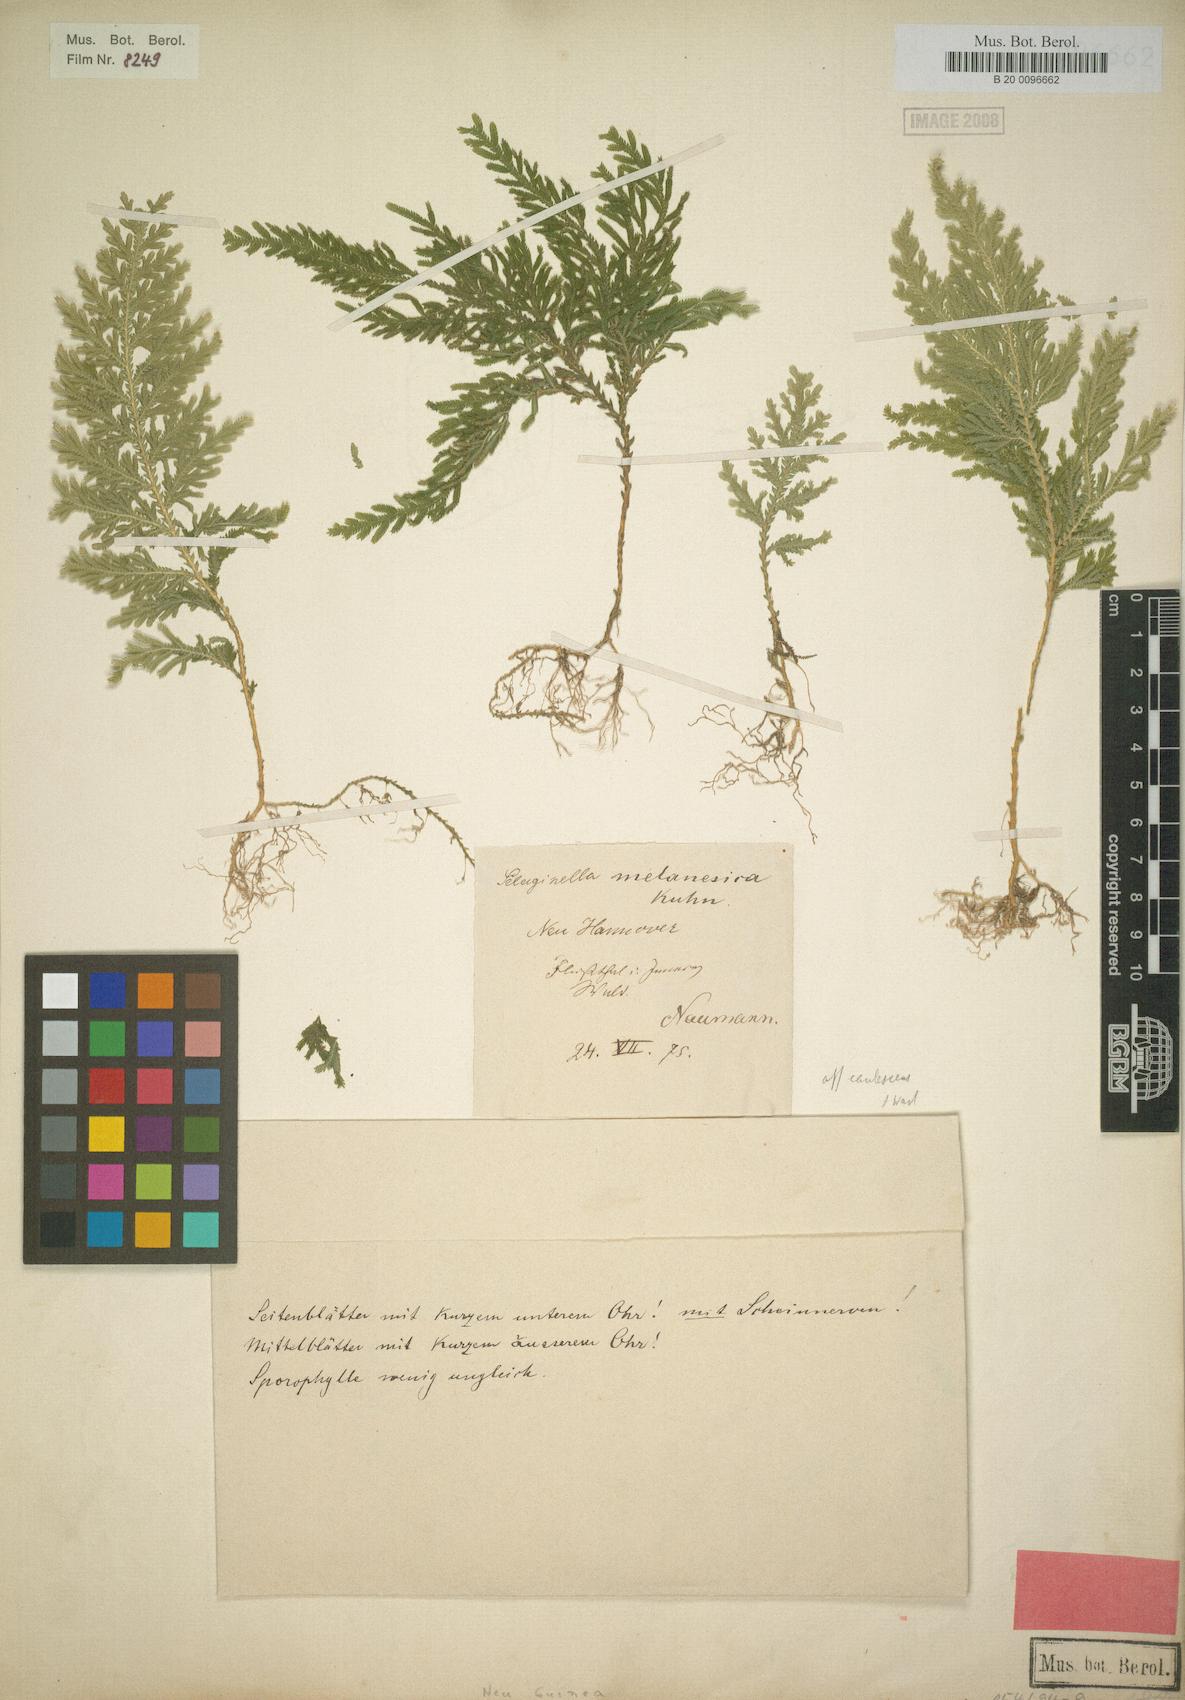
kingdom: Plantae
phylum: Tracheophyta
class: Lycopodiopsida
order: Selaginellales
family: Selaginellaceae
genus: Selaginella
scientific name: Selaginella melanesica
